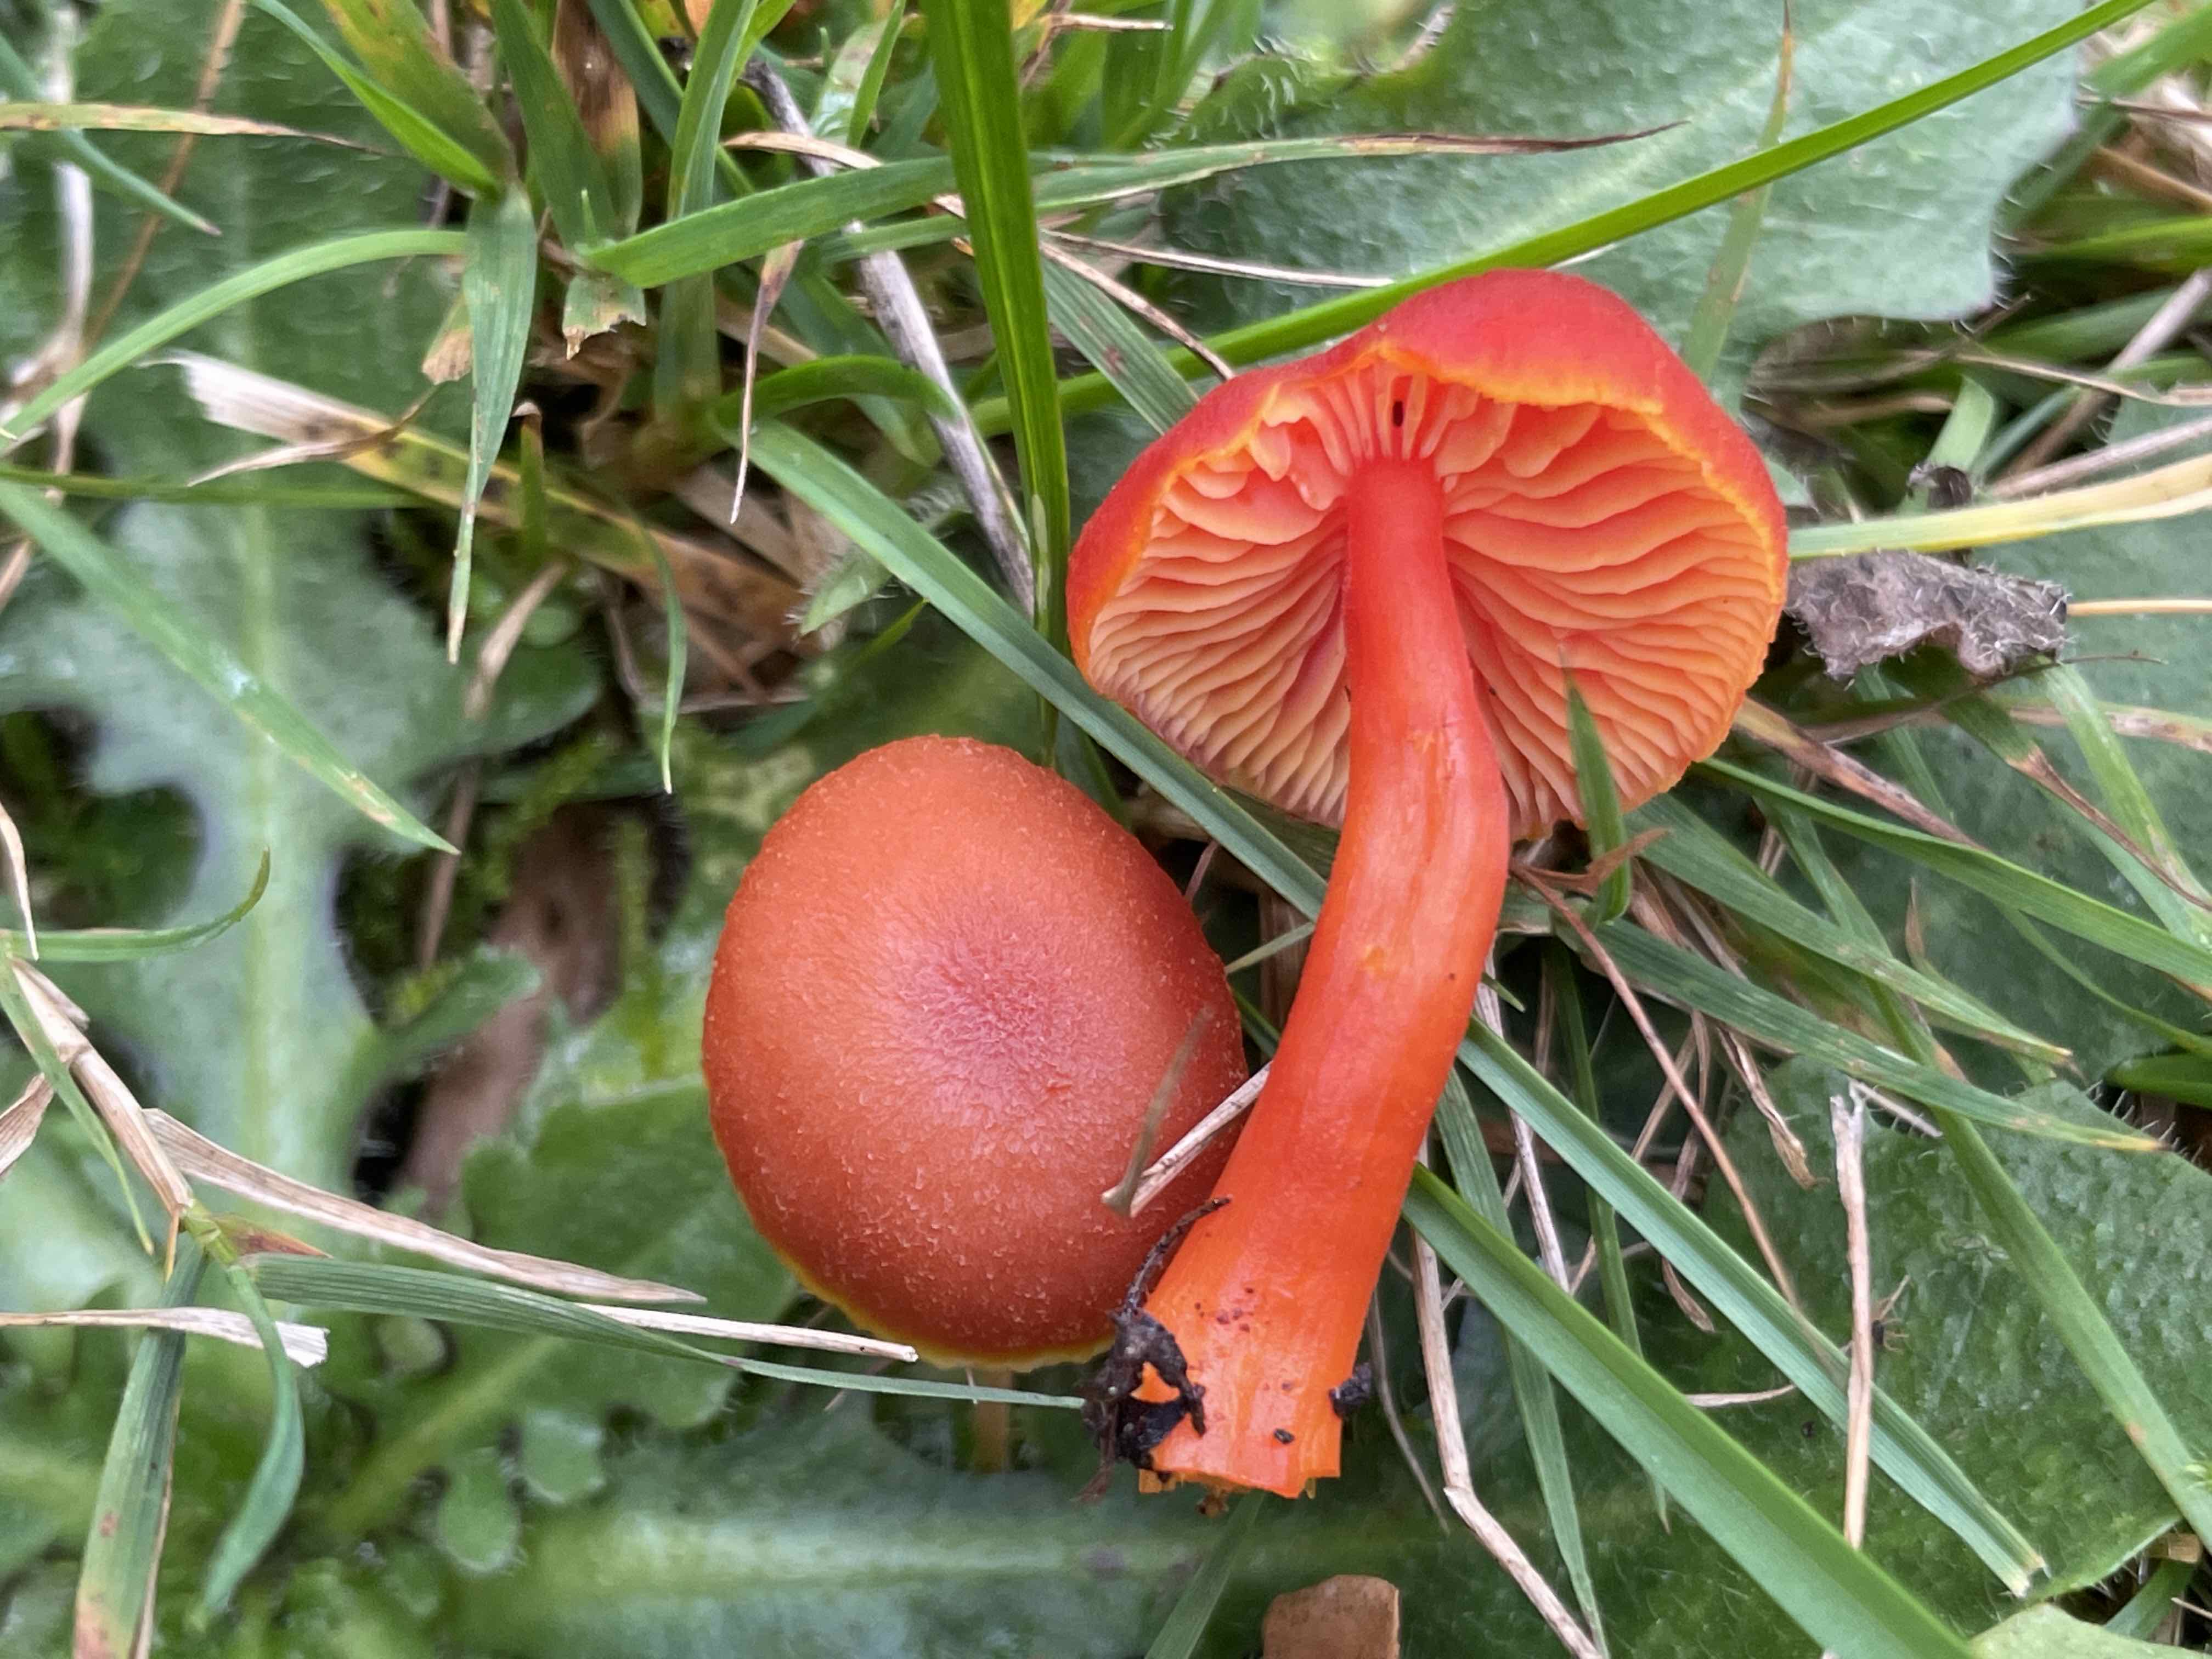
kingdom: Fungi
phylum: Basidiomycota
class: Agaricomycetes
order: Agaricales
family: Hygrophoraceae
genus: Hygrocybe
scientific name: Hygrocybe miniata
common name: mønje-vokshat
